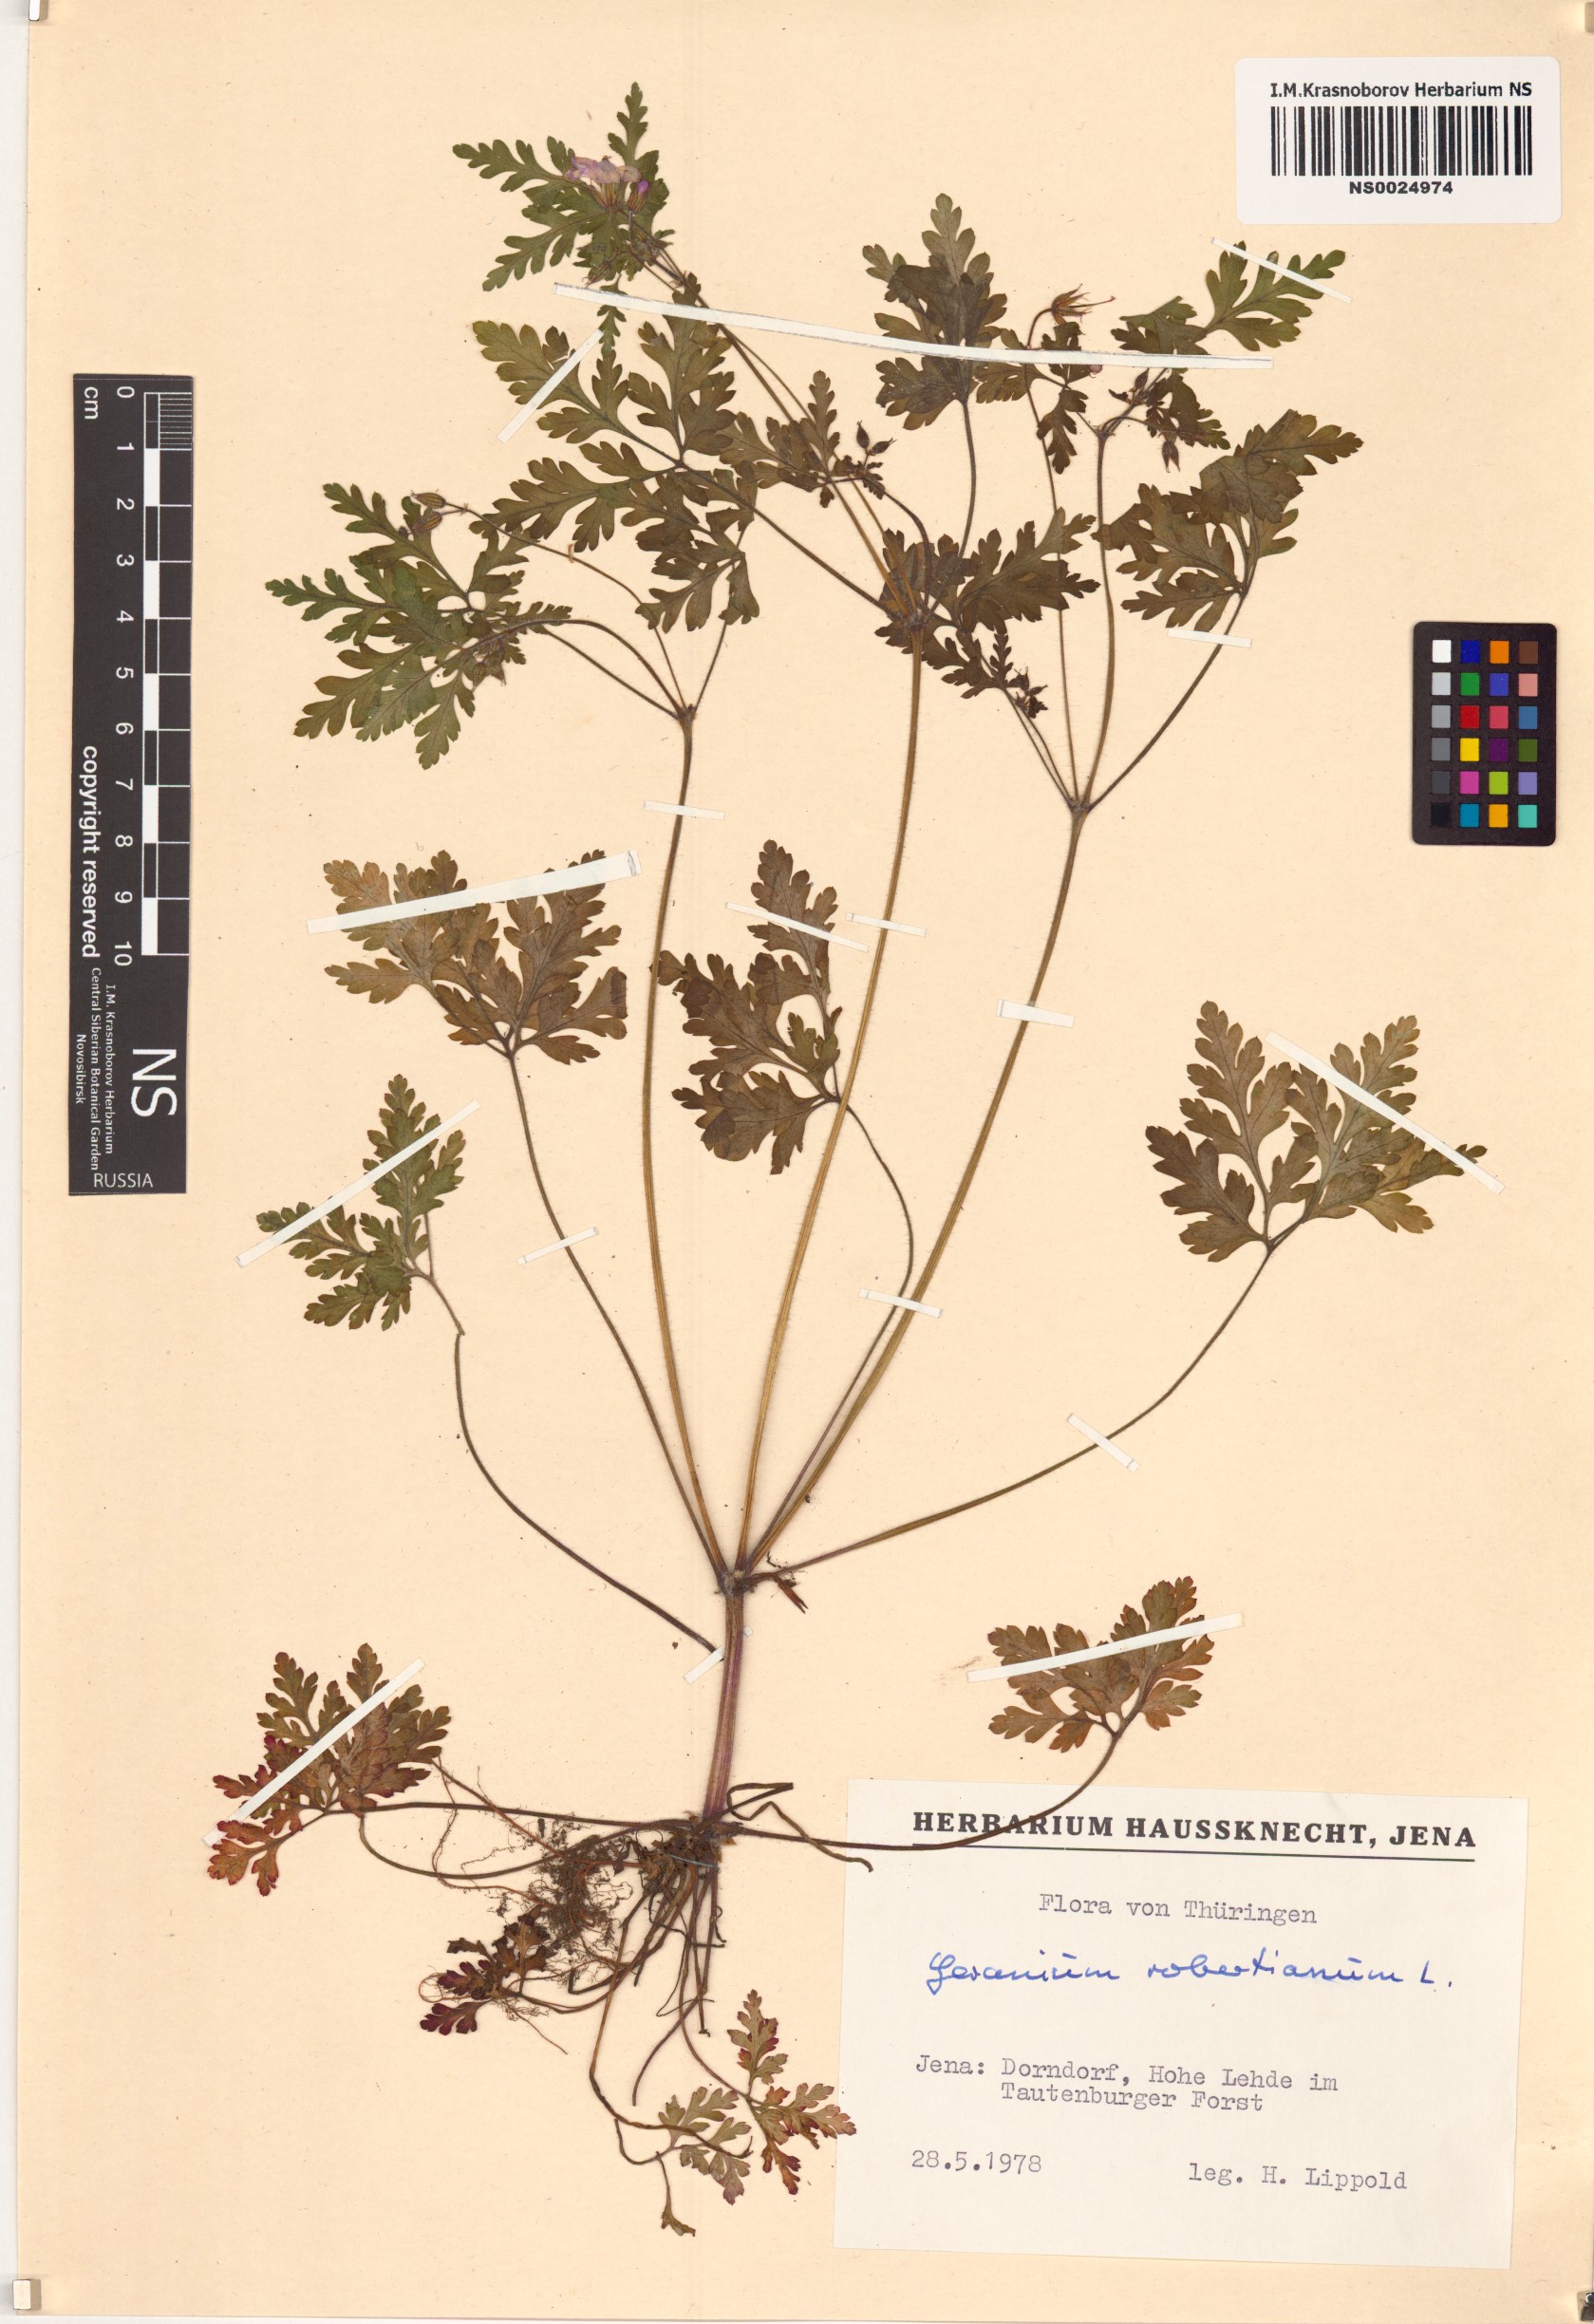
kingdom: Plantae
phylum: Tracheophyta
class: Magnoliopsida
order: Geraniales
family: Geraniaceae
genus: Geranium
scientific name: Geranium robertianum
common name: Herb-robert
